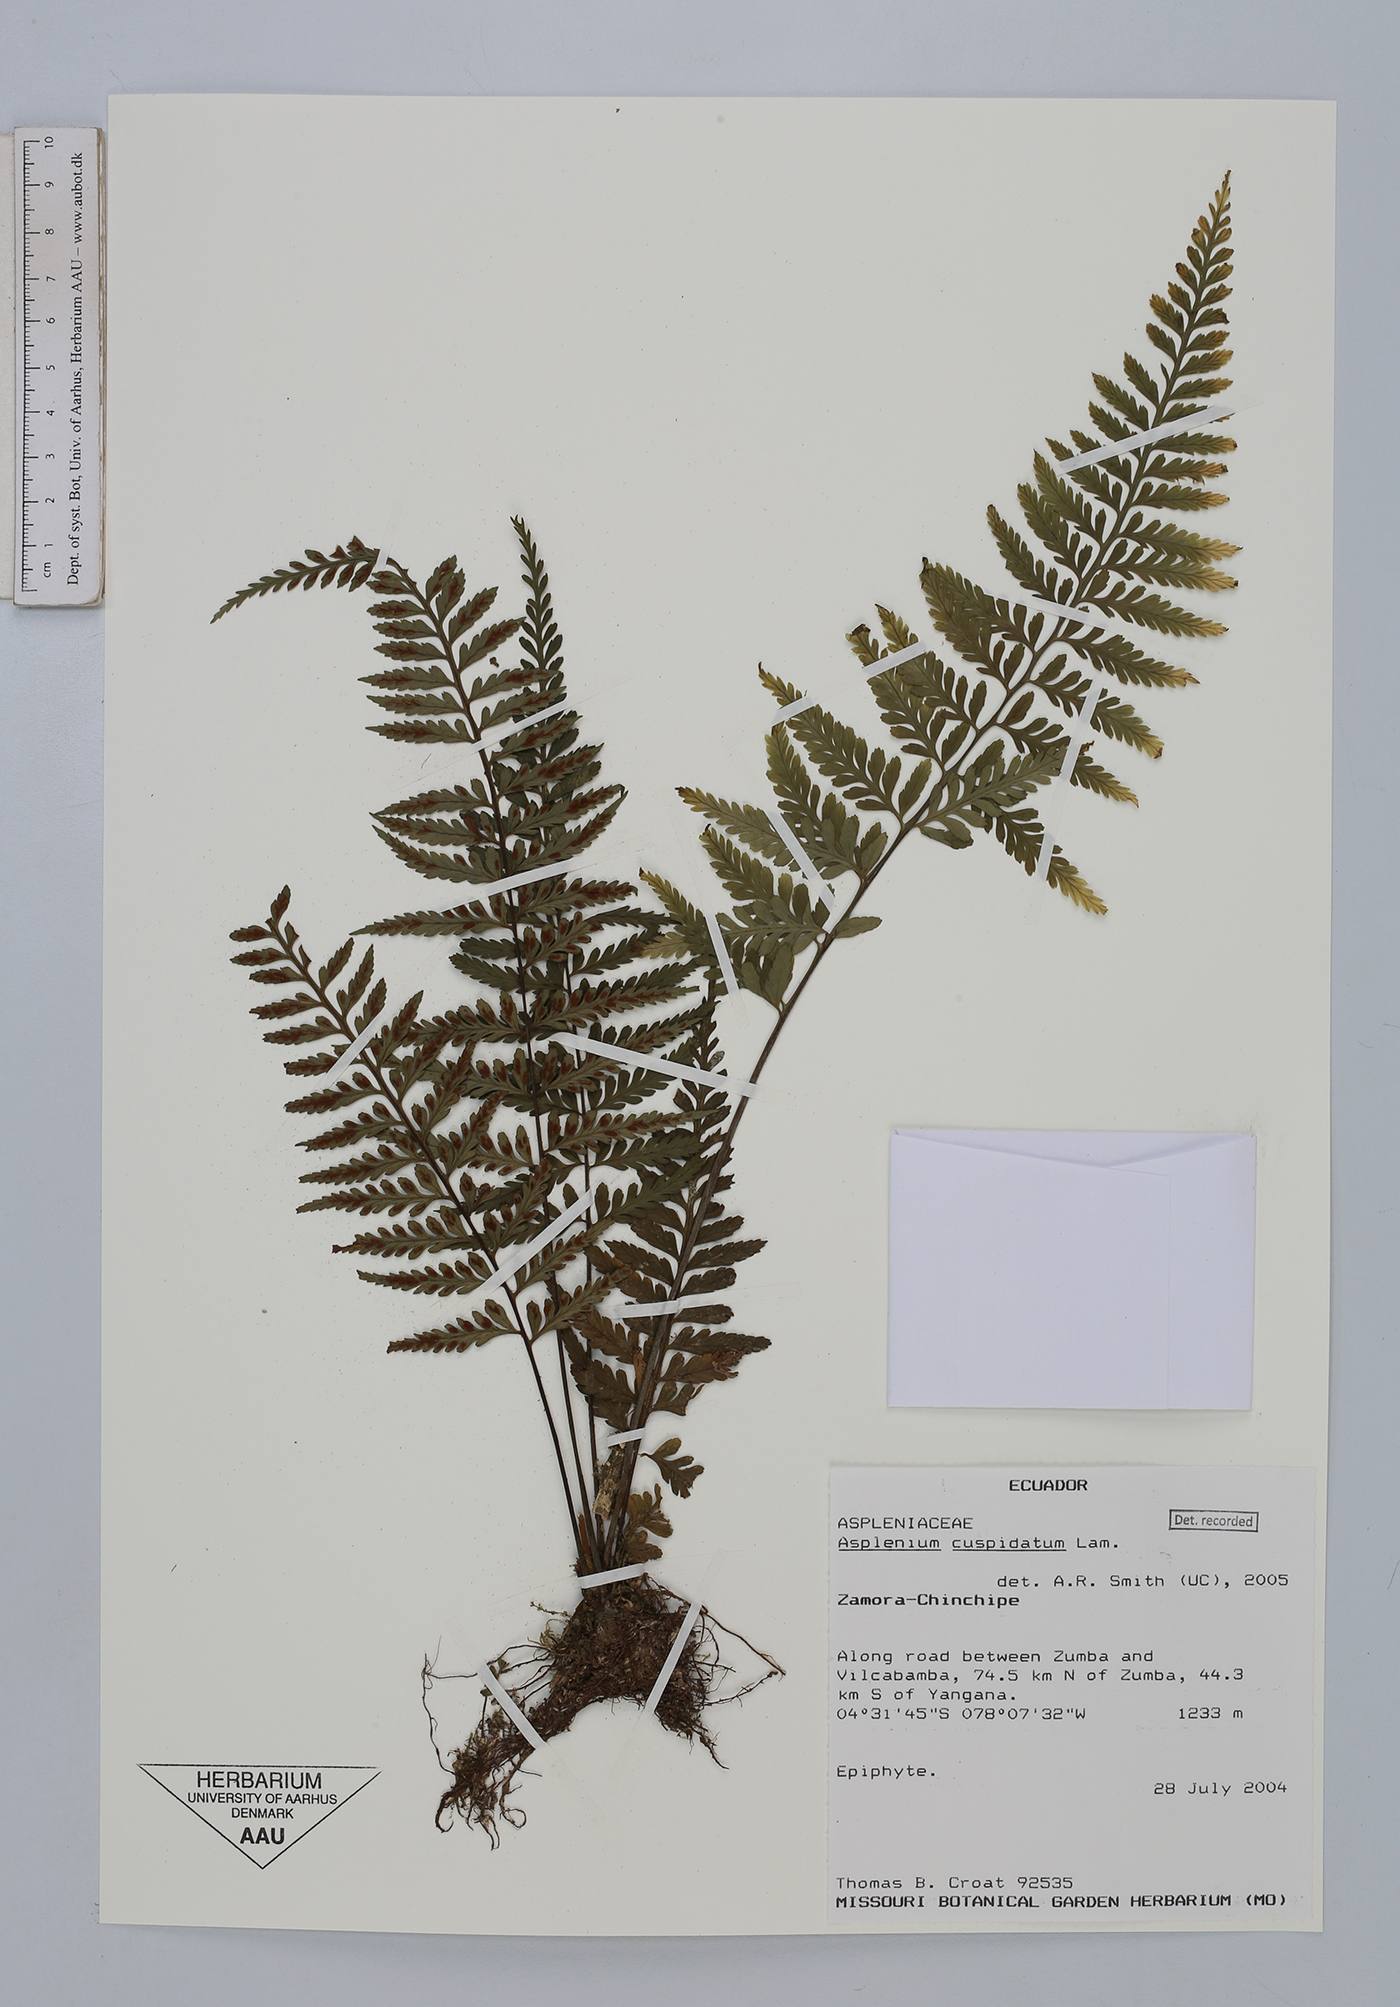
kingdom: Plantae
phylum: Tracheophyta
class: Polypodiopsida
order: Polypodiales
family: Aspleniaceae
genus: Asplenium
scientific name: Asplenium cuspidatum
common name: Eared spleenwort
